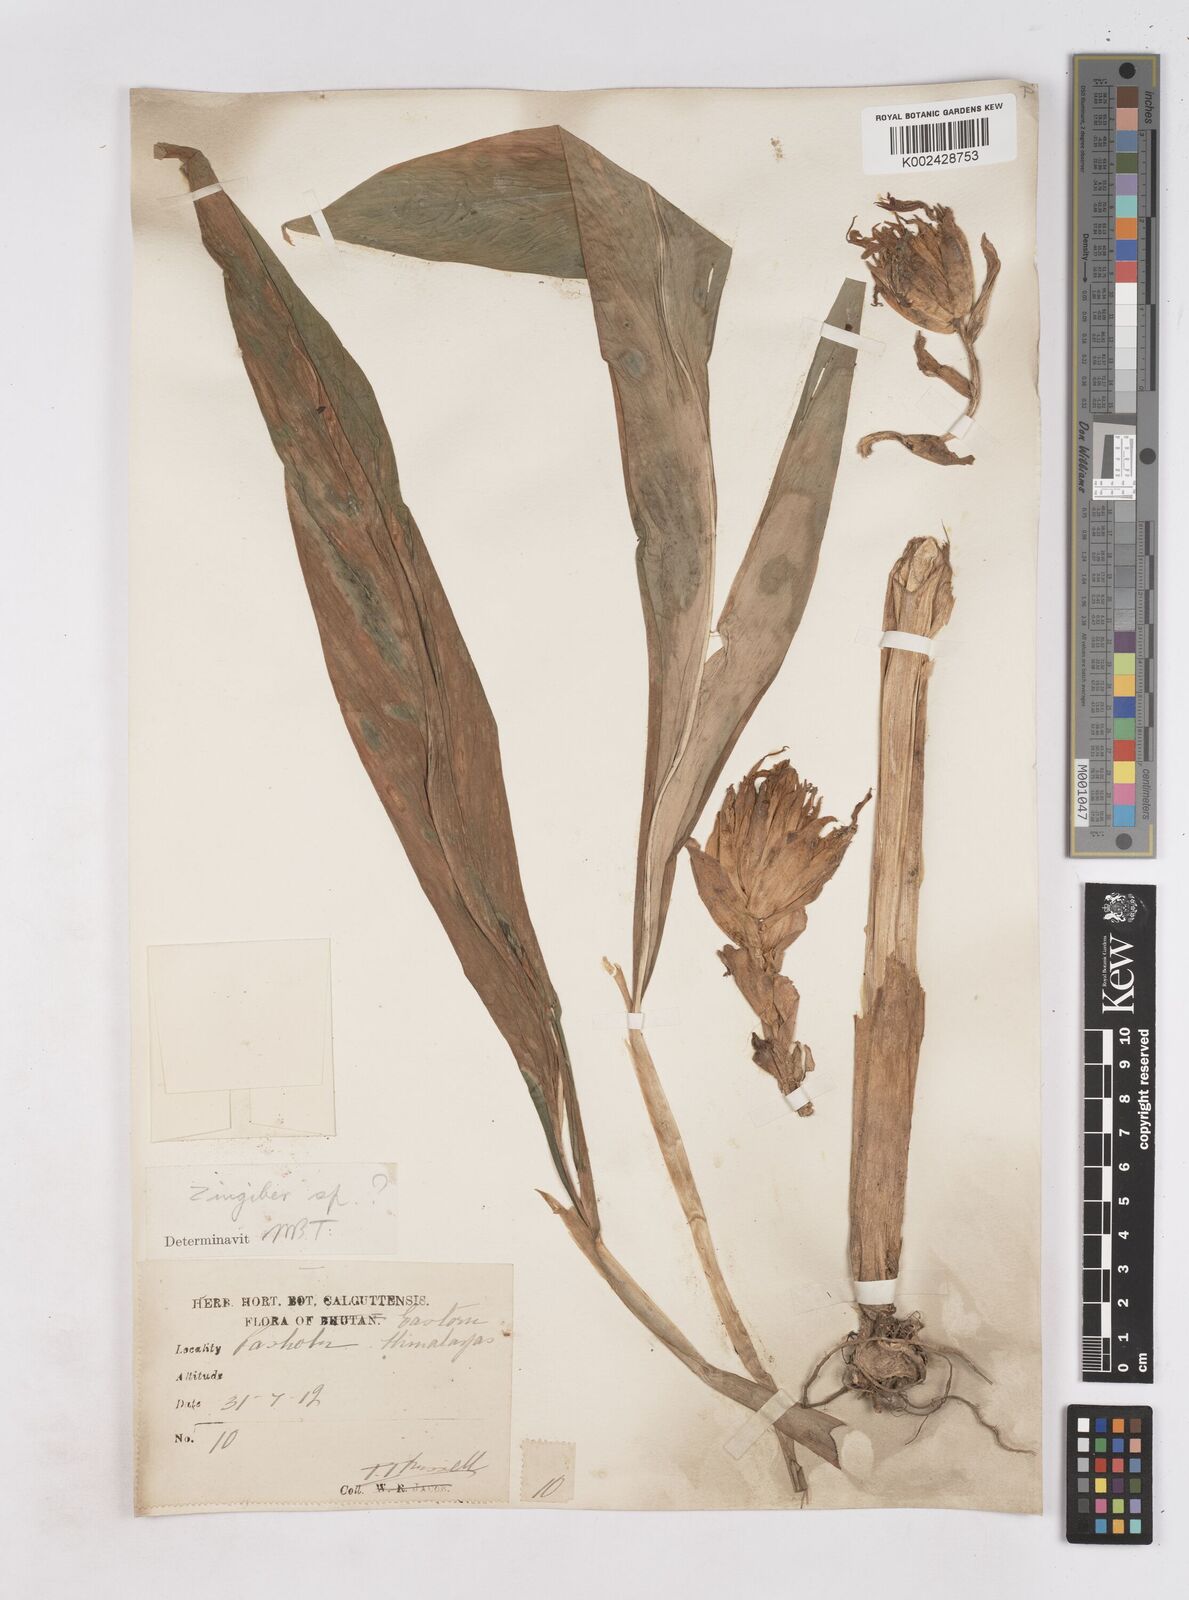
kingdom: Plantae
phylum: Tracheophyta
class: Liliopsida
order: Zingiberales
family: Zingiberaceae
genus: Zingiber
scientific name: Zingiber
